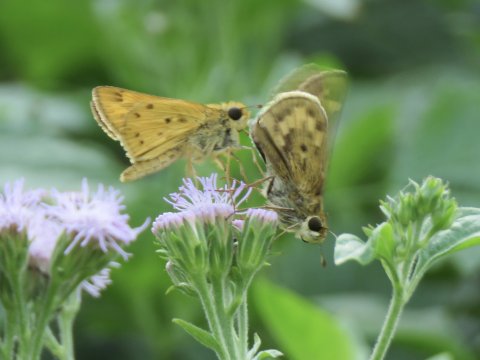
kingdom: Animalia
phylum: Arthropoda
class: Insecta
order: Lepidoptera
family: Hesperiidae
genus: Hylephila
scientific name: Hylephila phyleus
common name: Fiery Skipper
